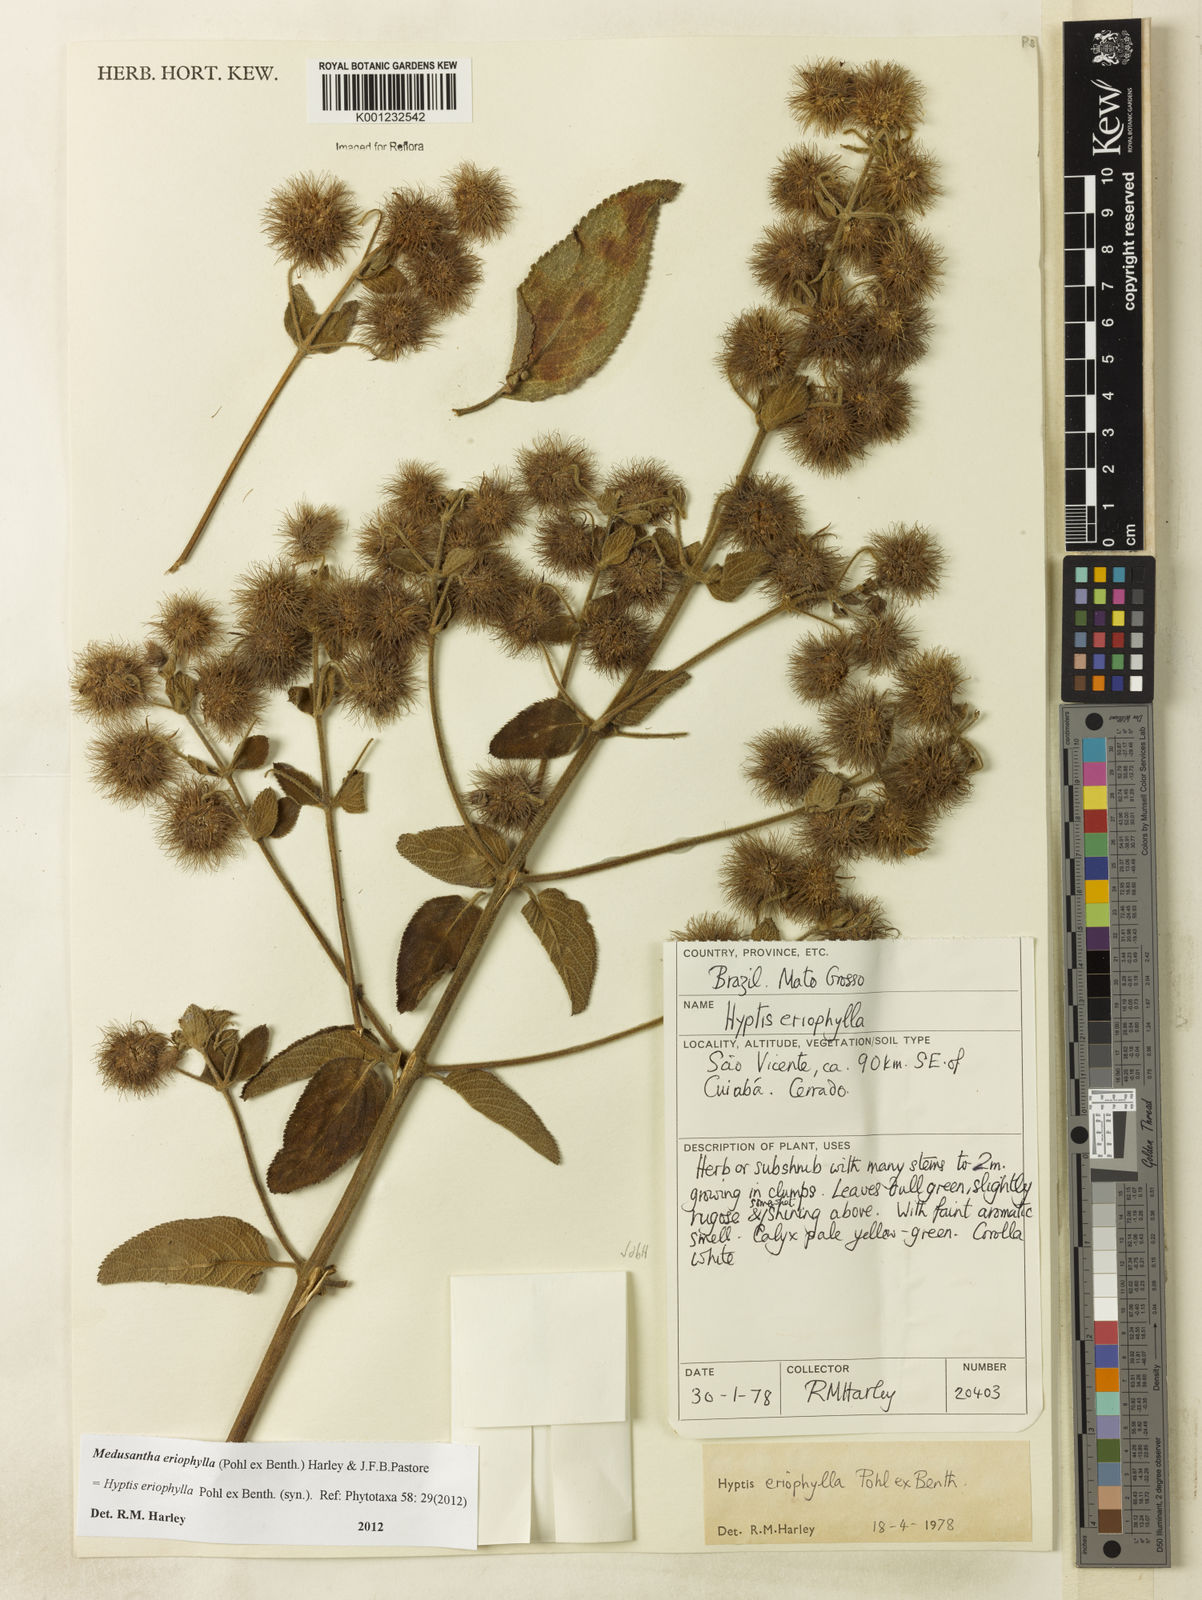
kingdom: Plantae
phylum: Tracheophyta
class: Magnoliopsida
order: Lamiales
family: Lamiaceae
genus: Medusantha
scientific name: Medusantha eriophylla
